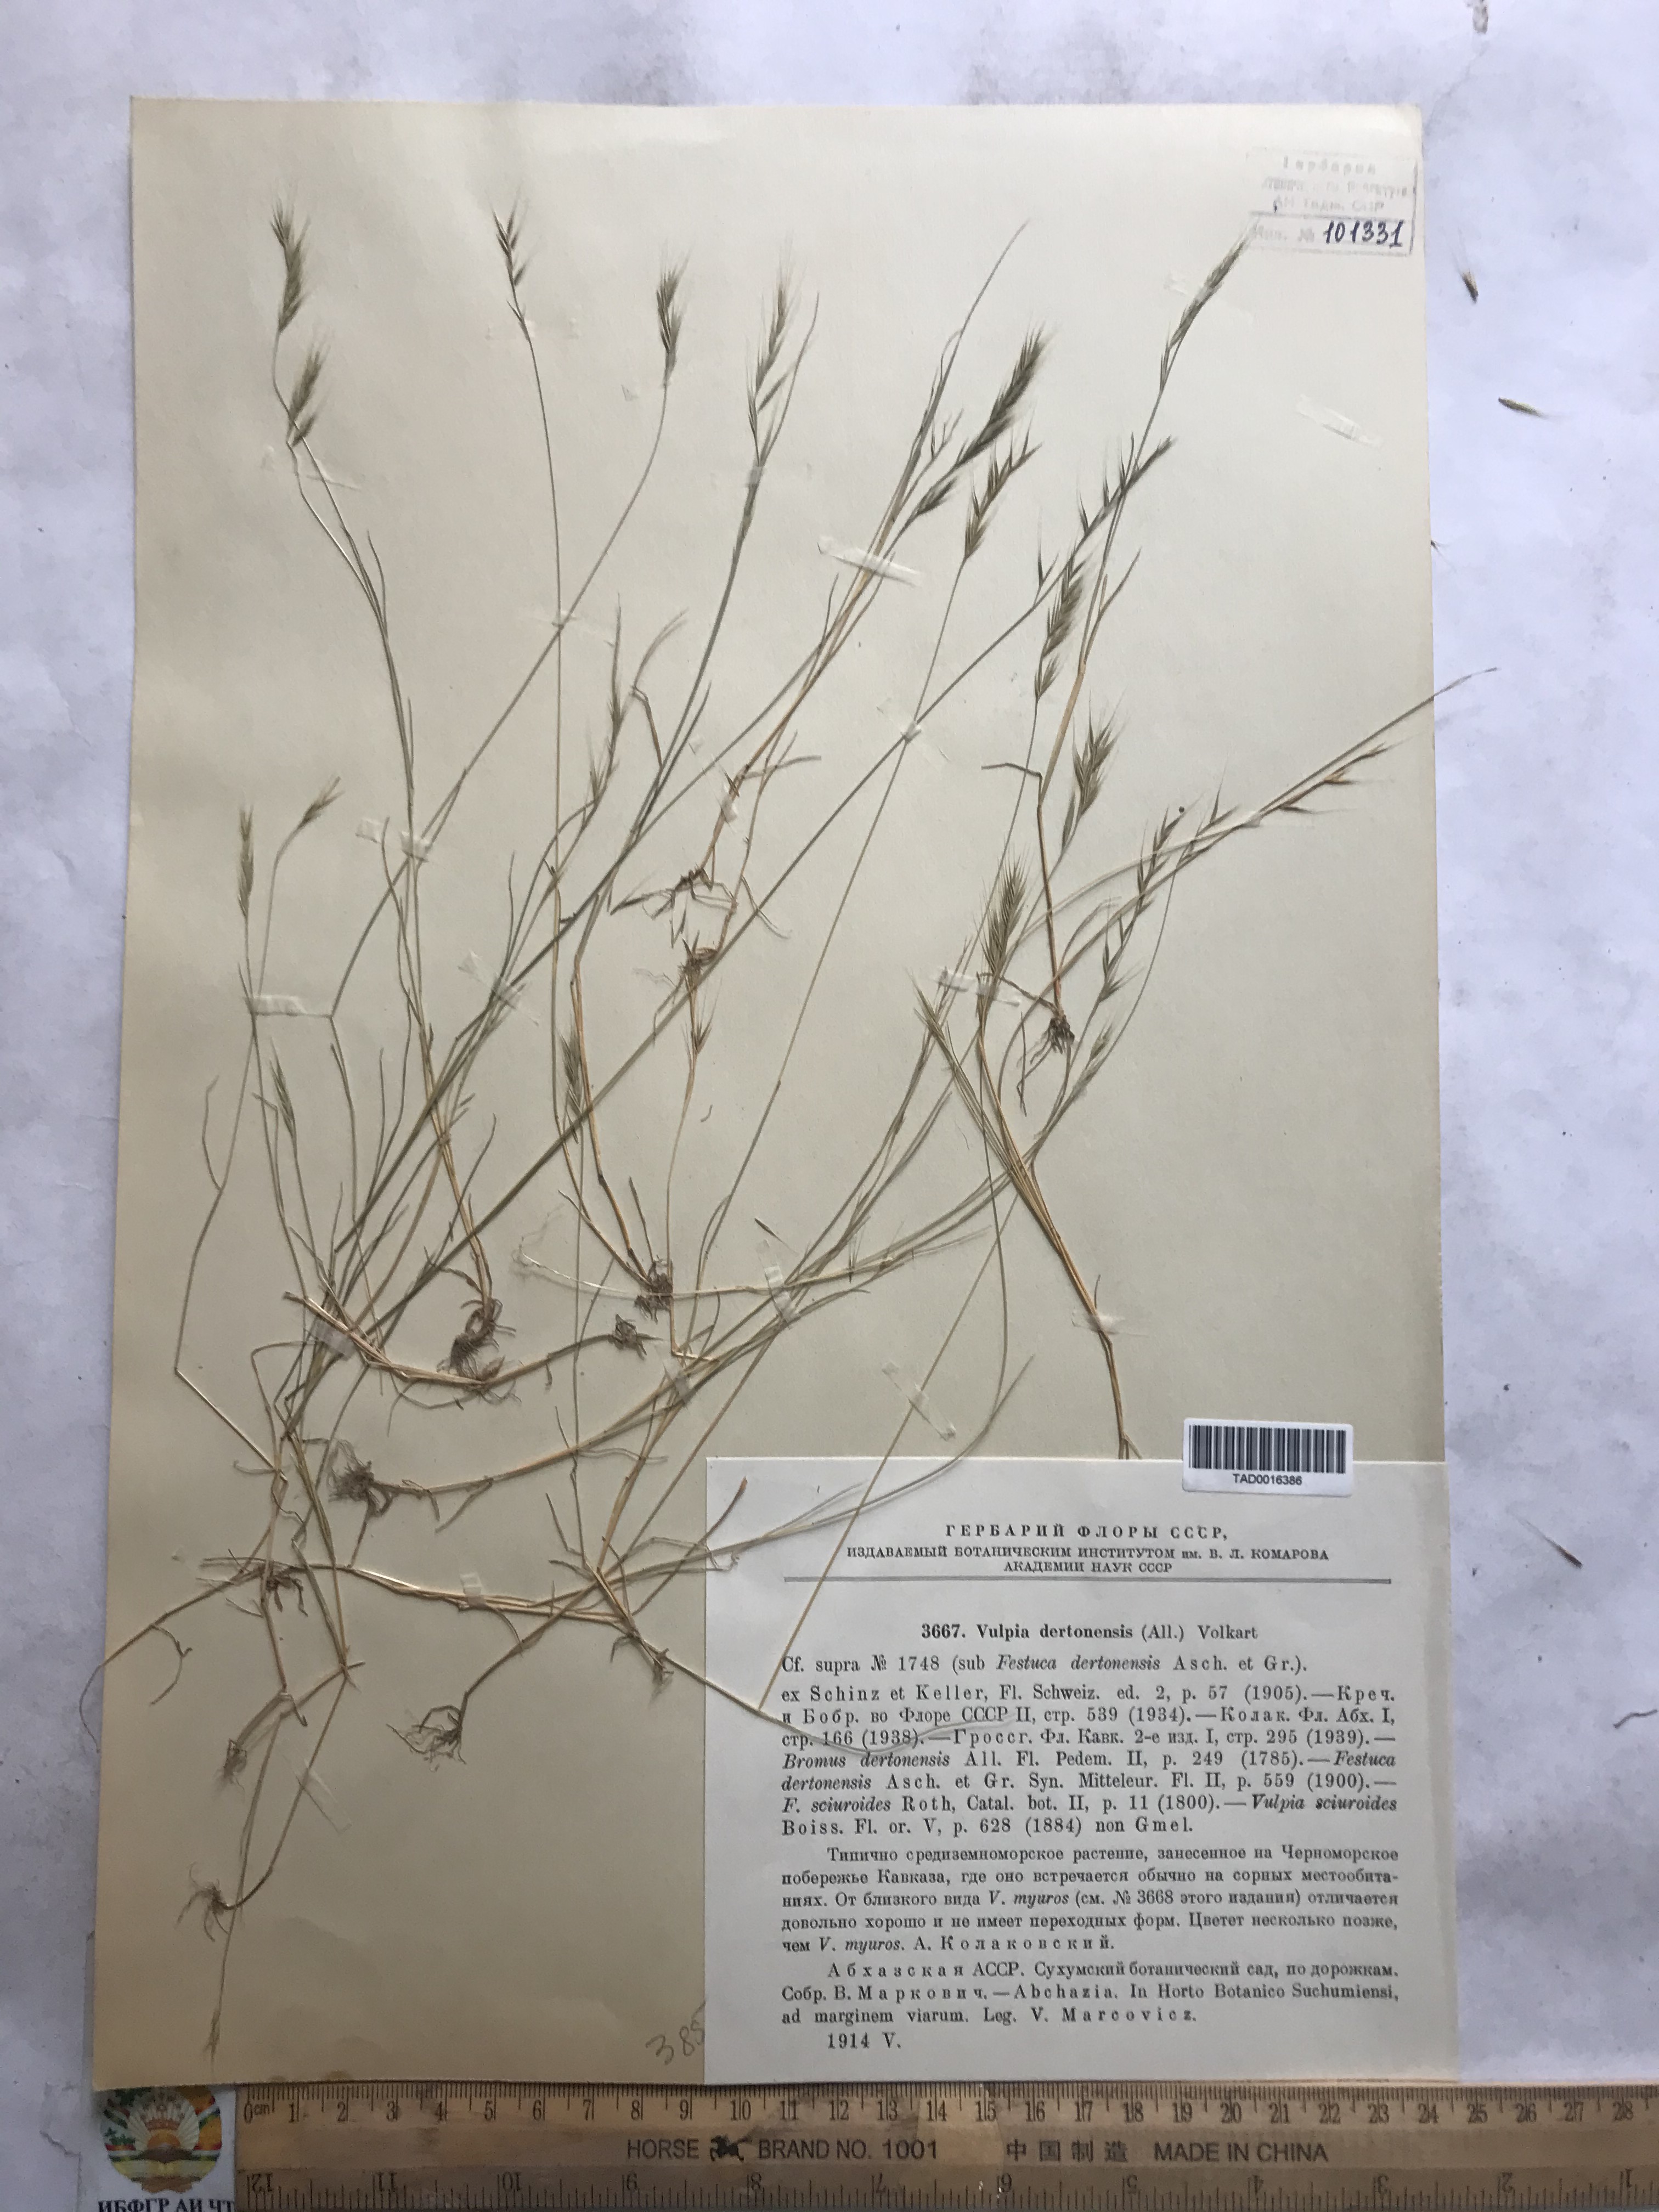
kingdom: Plantae
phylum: Tracheophyta
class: Liliopsida
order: Poales
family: Poaceae
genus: Festuca
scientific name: Festuca bromoides
